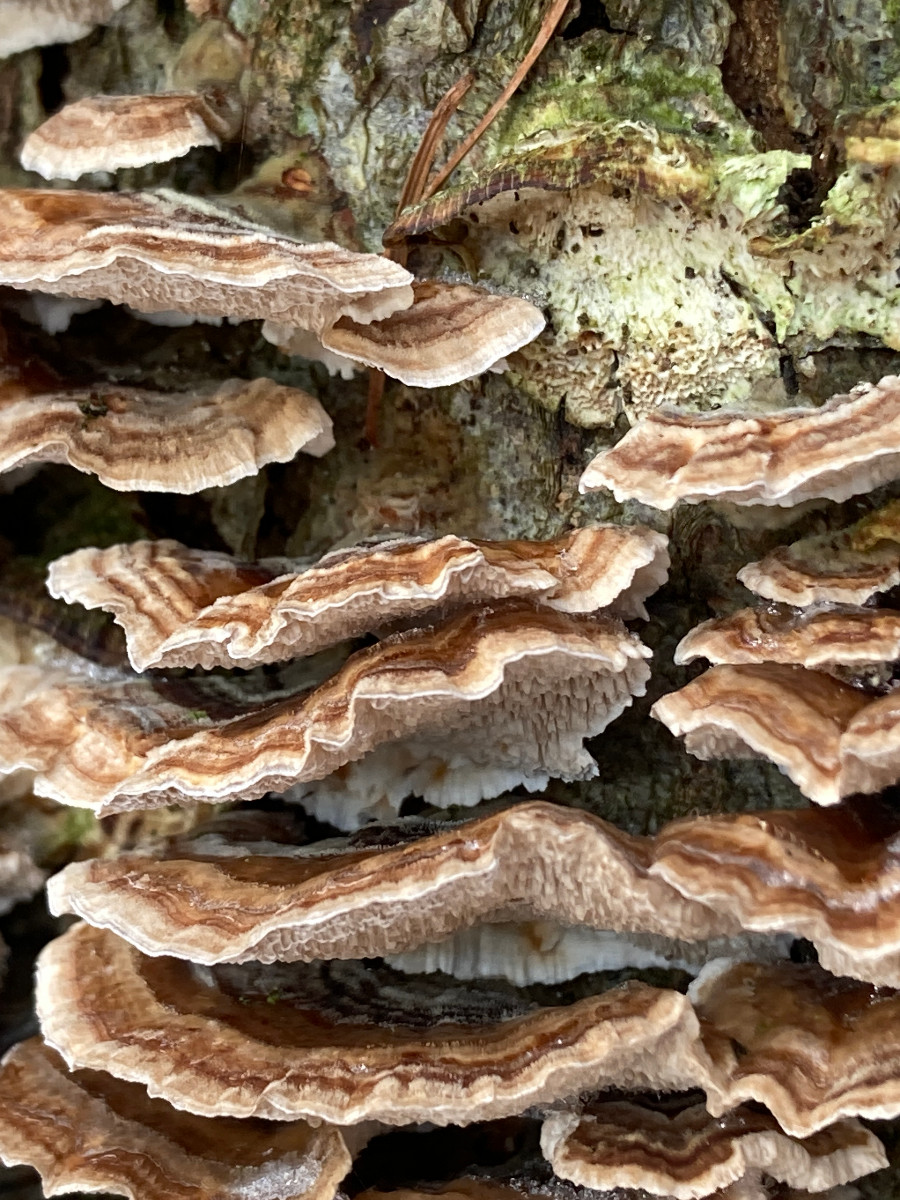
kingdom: Fungi
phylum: Basidiomycota
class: Agaricomycetes
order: Polyporales
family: Polyporaceae
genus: Trametes
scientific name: Trametes versicolor
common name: broget læderporesvamp
